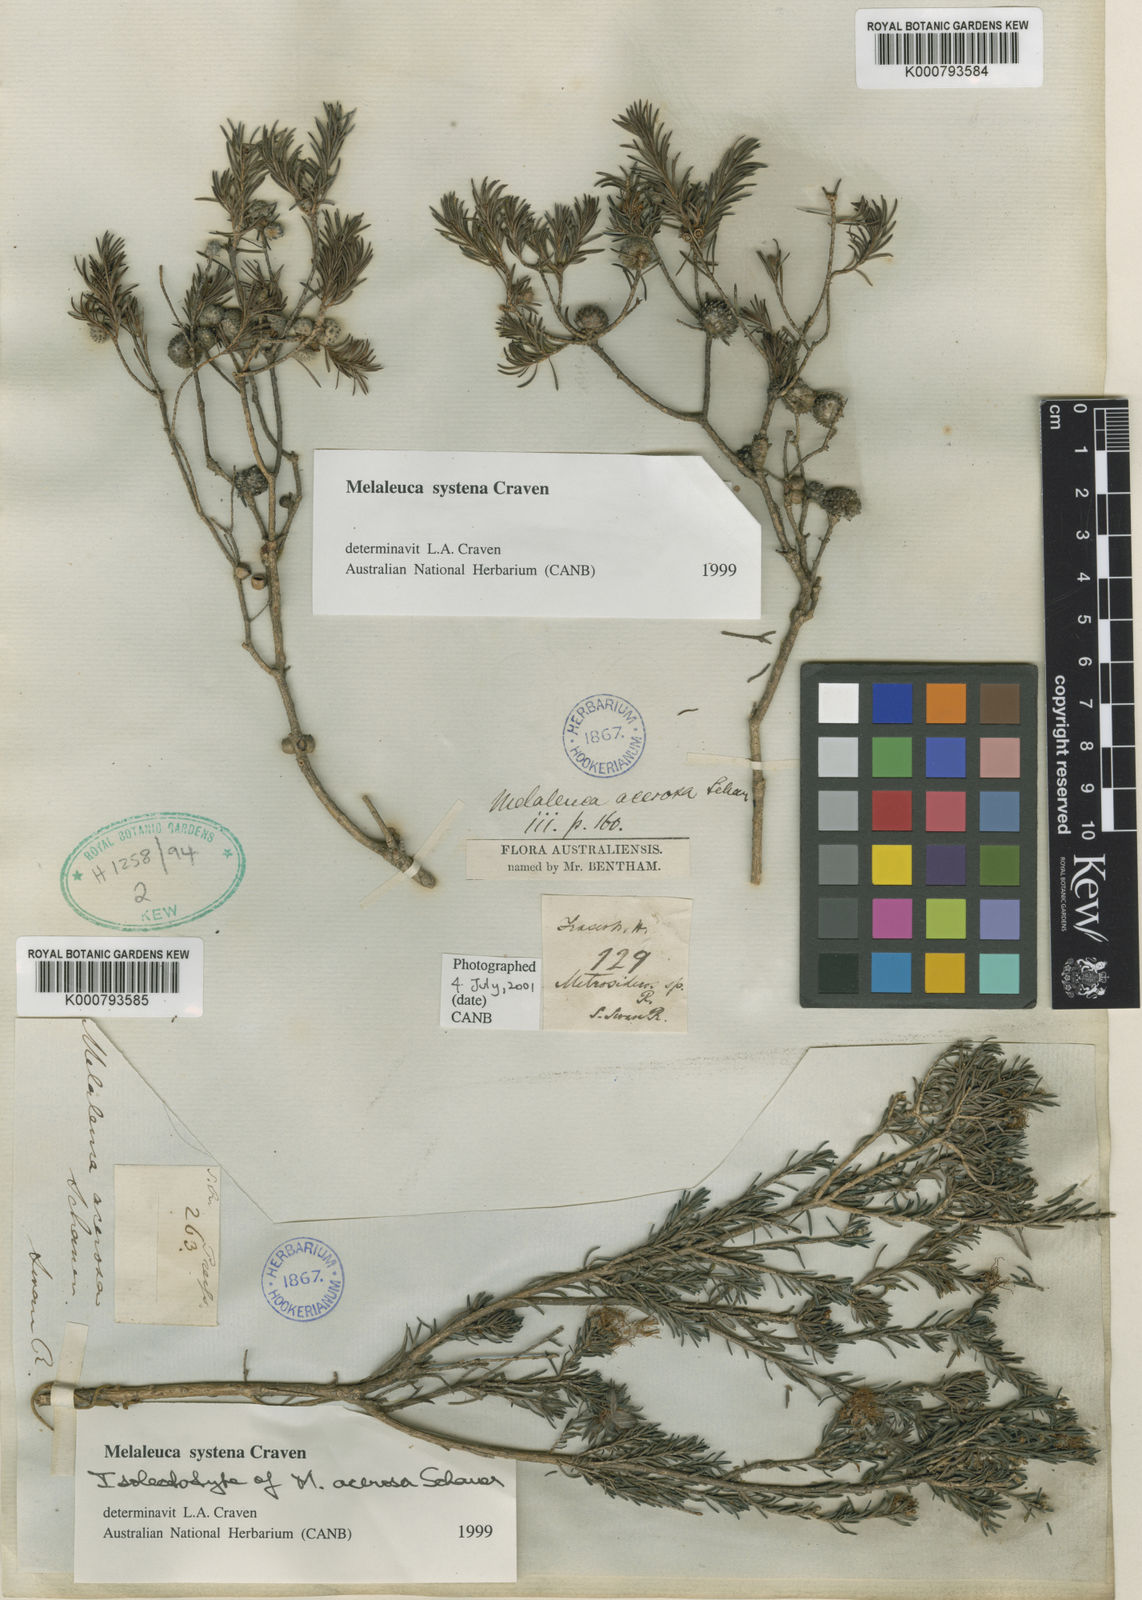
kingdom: Plantae
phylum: Tracheophyta
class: Magnoliopsida
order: Myrtales
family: Myrtaceae
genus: Melaleuca
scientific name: Melaleuca systena
